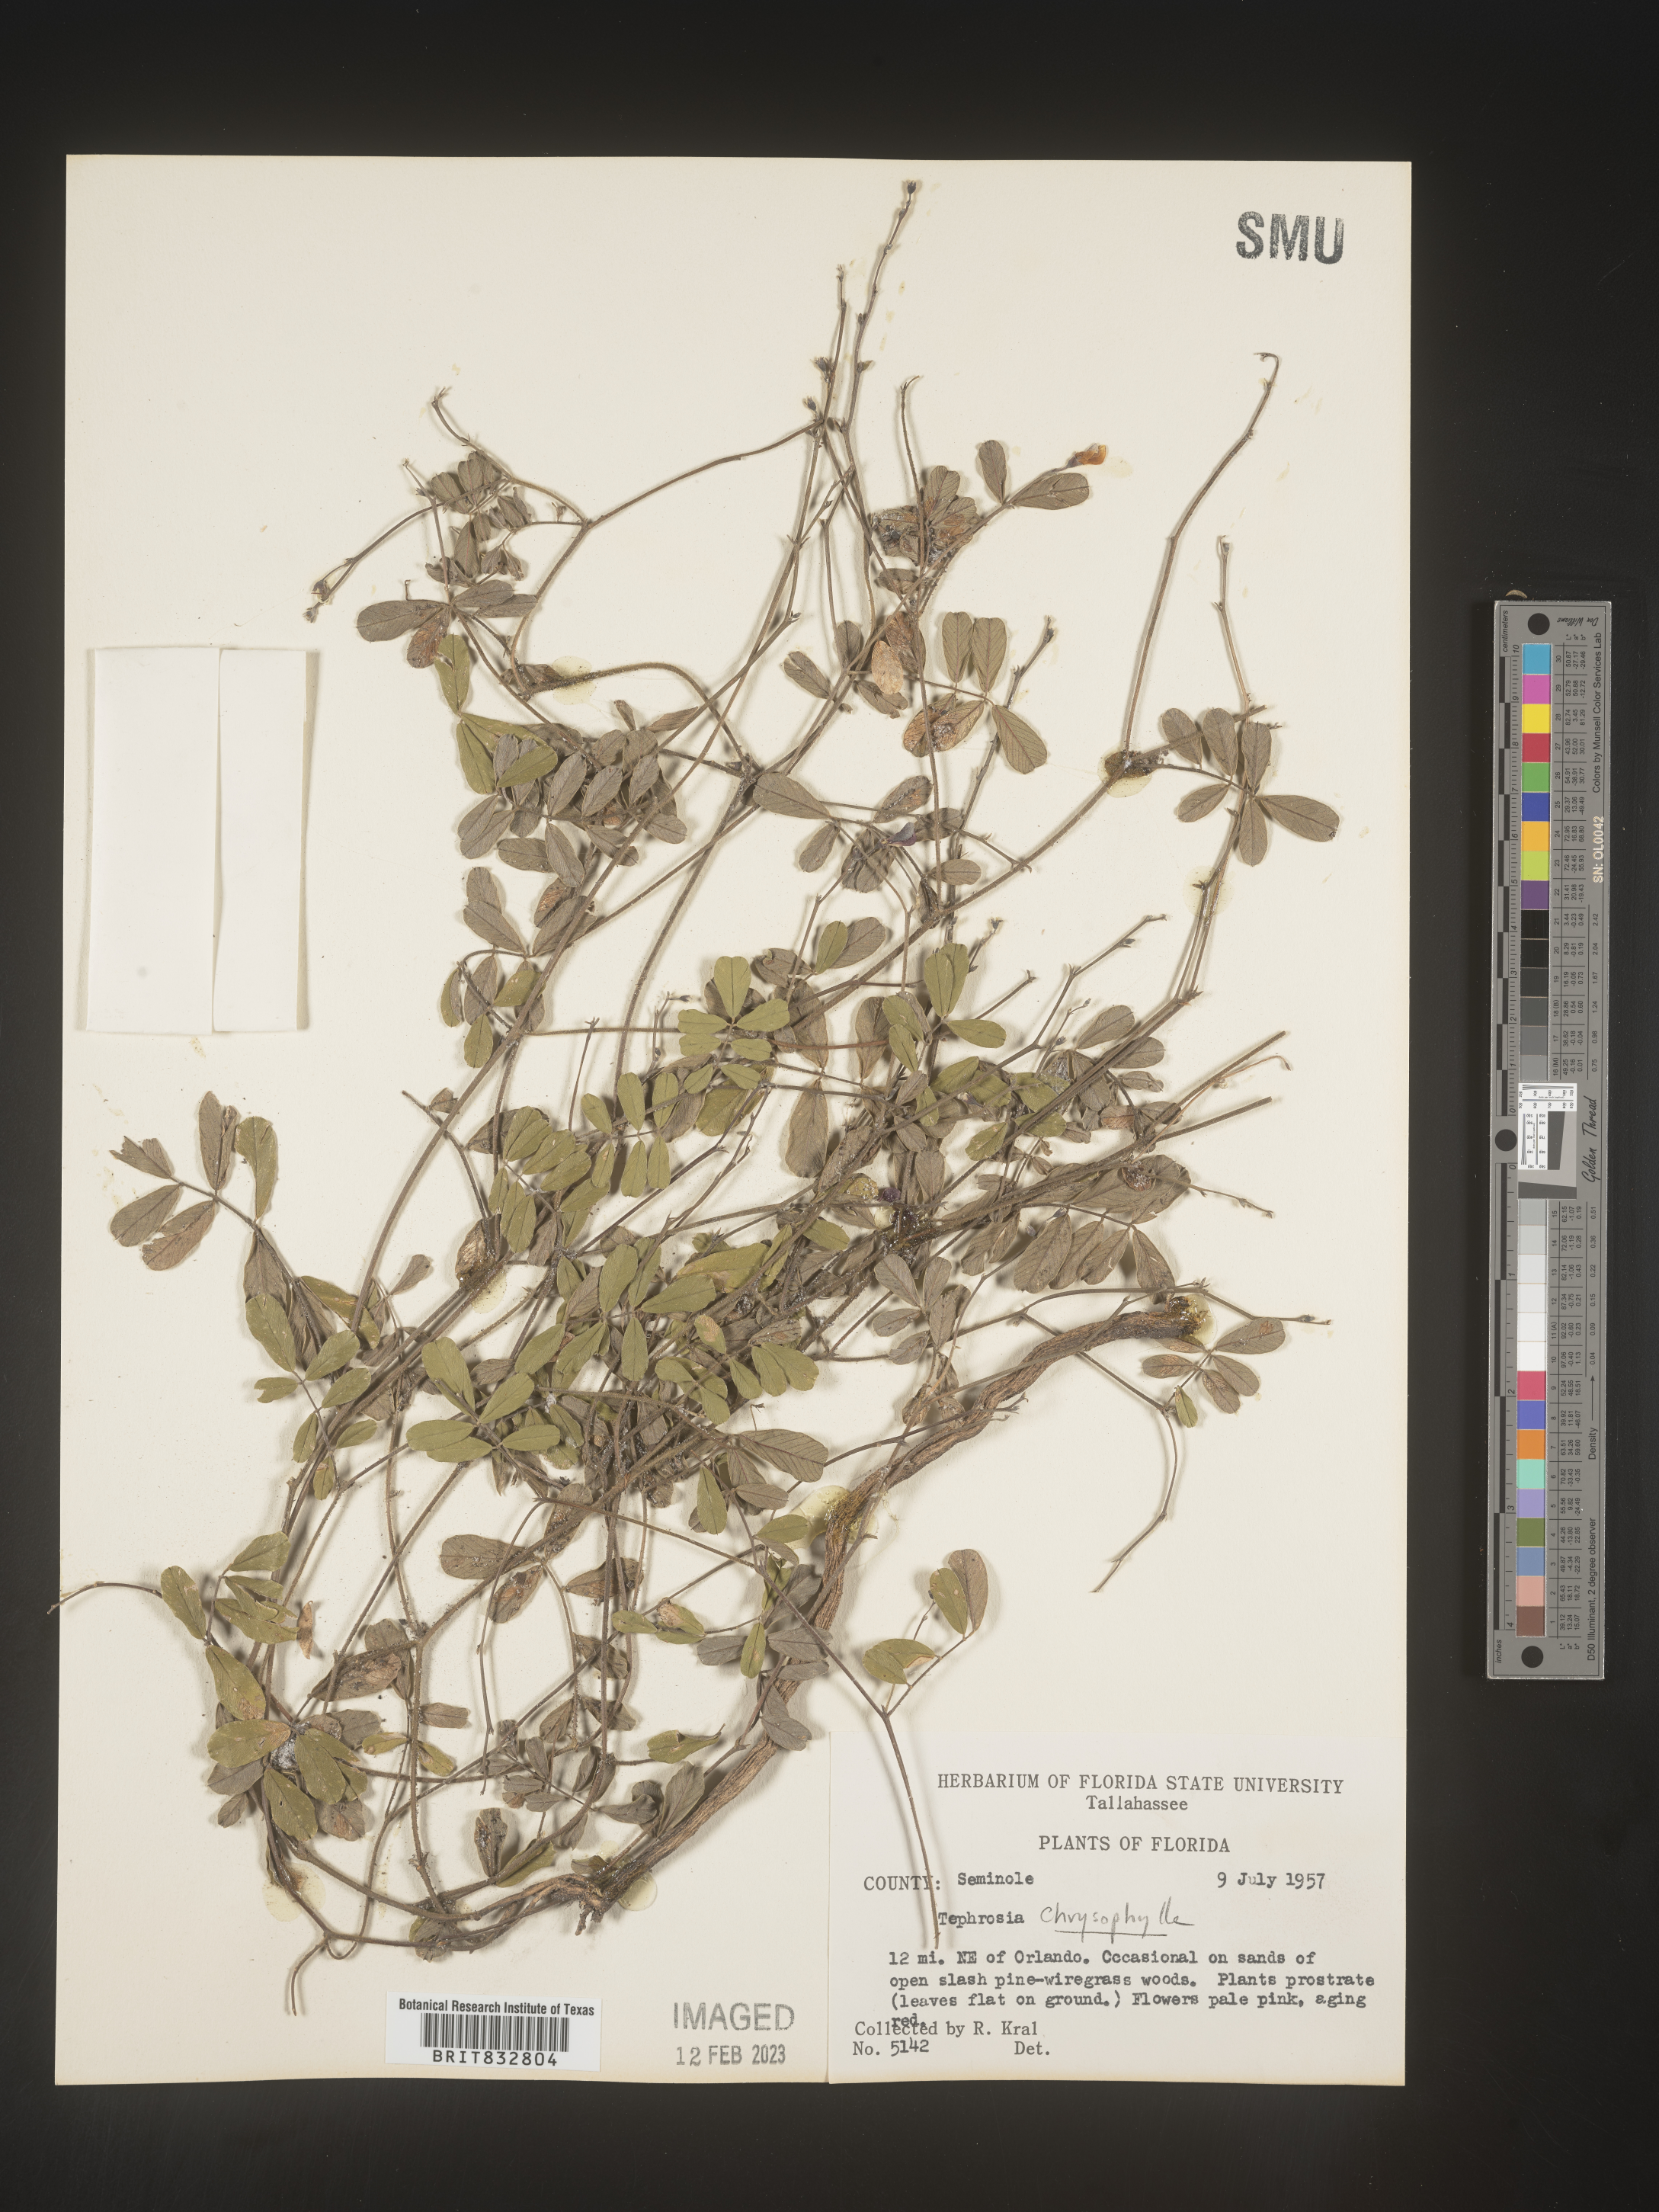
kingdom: Plantae
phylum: Tracheophyta
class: Magnoliopsida
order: Fabales
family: Fabaceae
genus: Tephrosia
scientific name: Tephrosia chrysophylla
